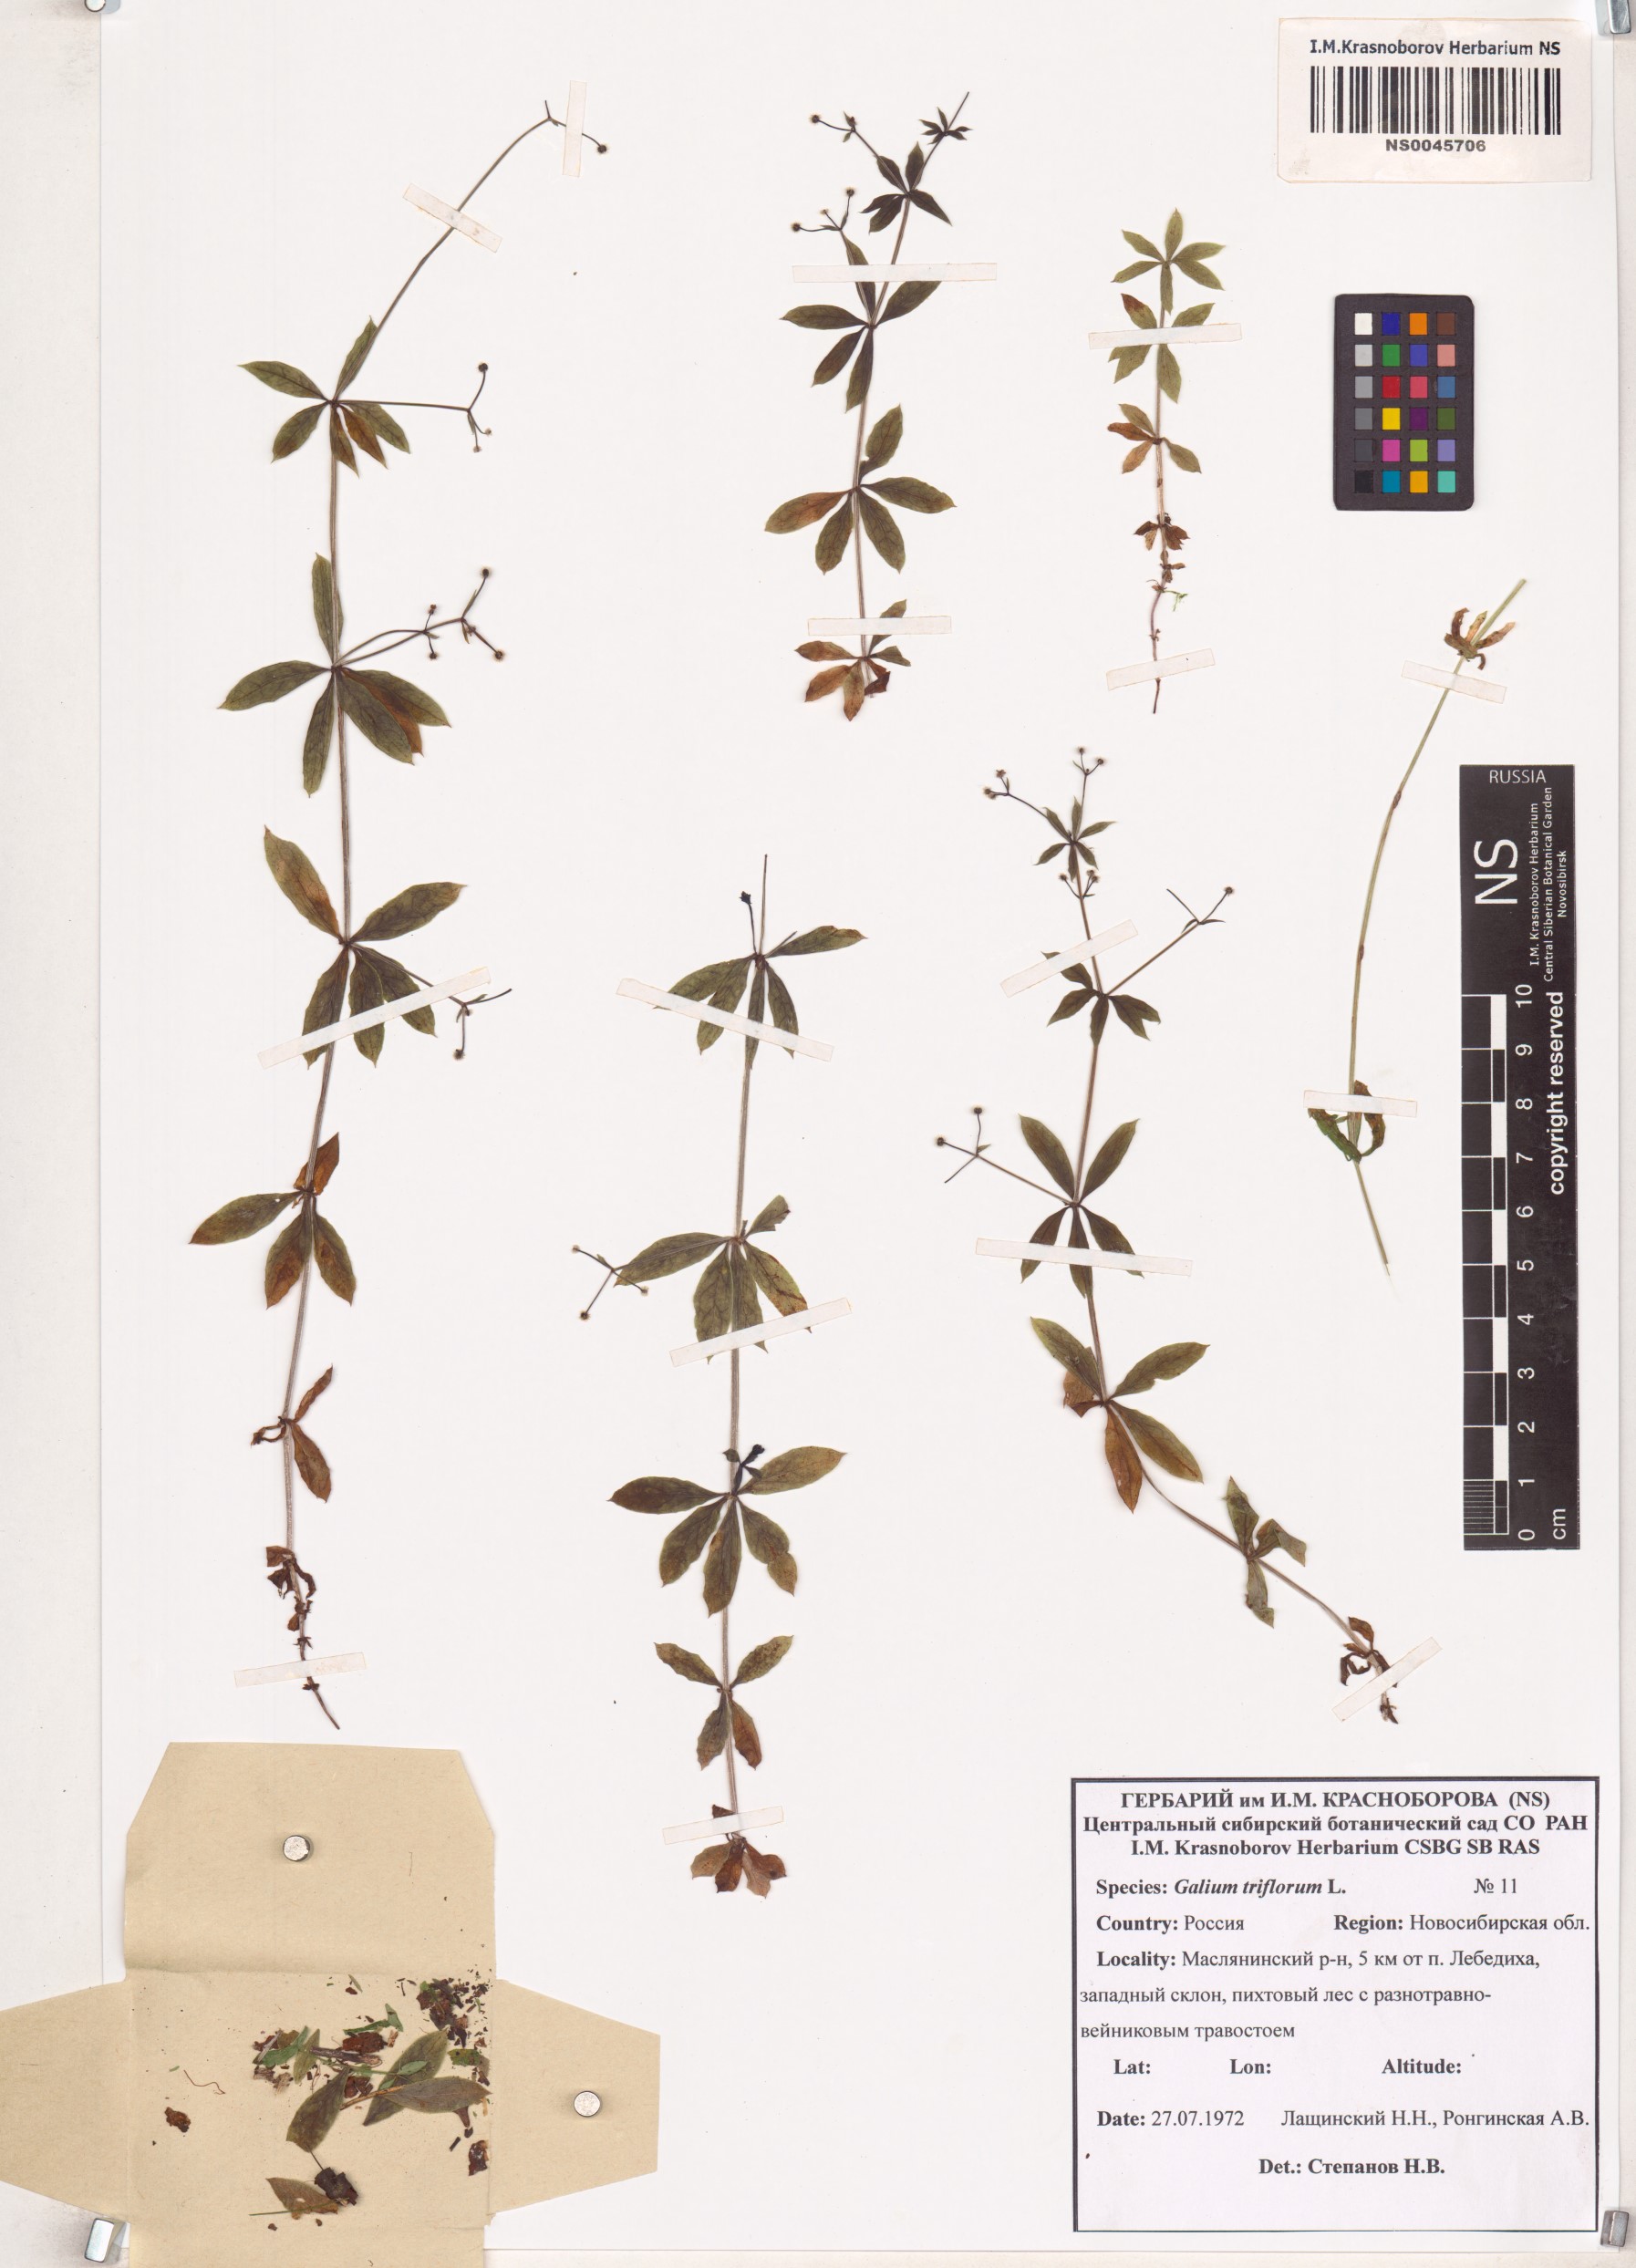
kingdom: Plantae
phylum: Tracheophyta
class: Magnoliopsida
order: Gentianales
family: Rubiaceae
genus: Galium
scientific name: Galium triflorum
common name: Fragrant bedstraw
